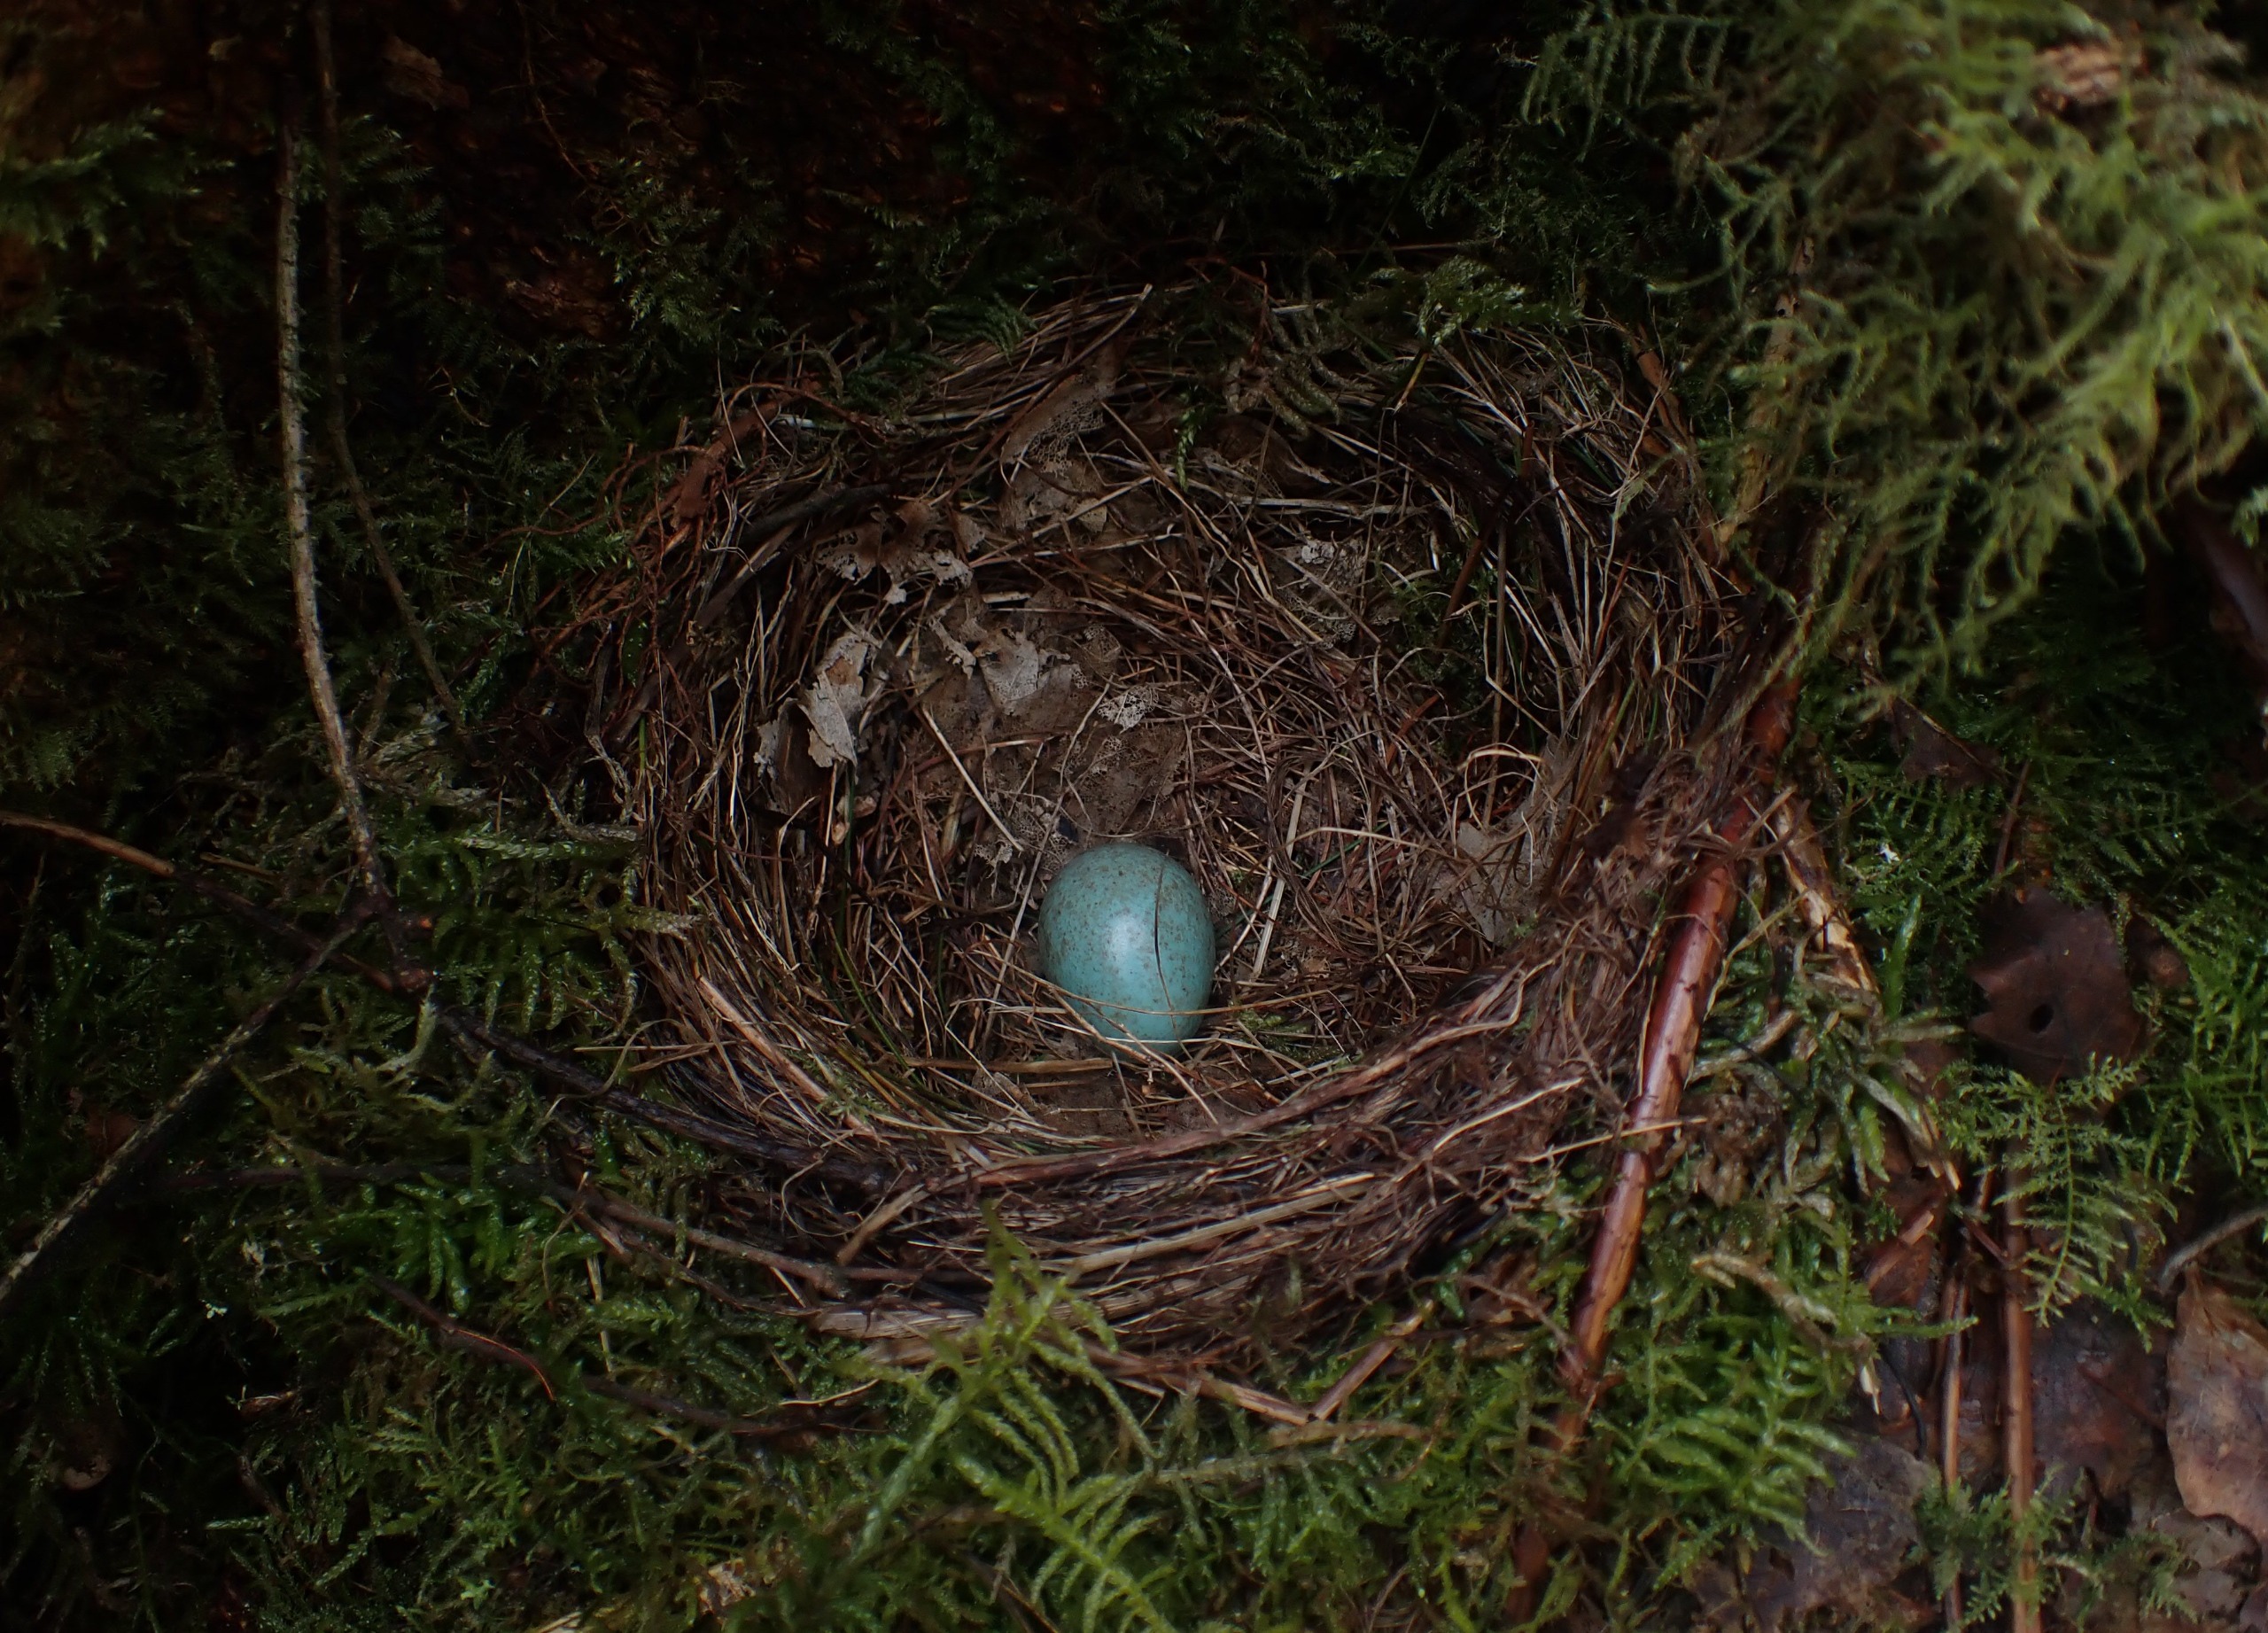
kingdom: Animalia
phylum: Chordata
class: Aves
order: Passeriformes
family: Turdidae
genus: Turdus
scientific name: Turdus merula
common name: Solsort
